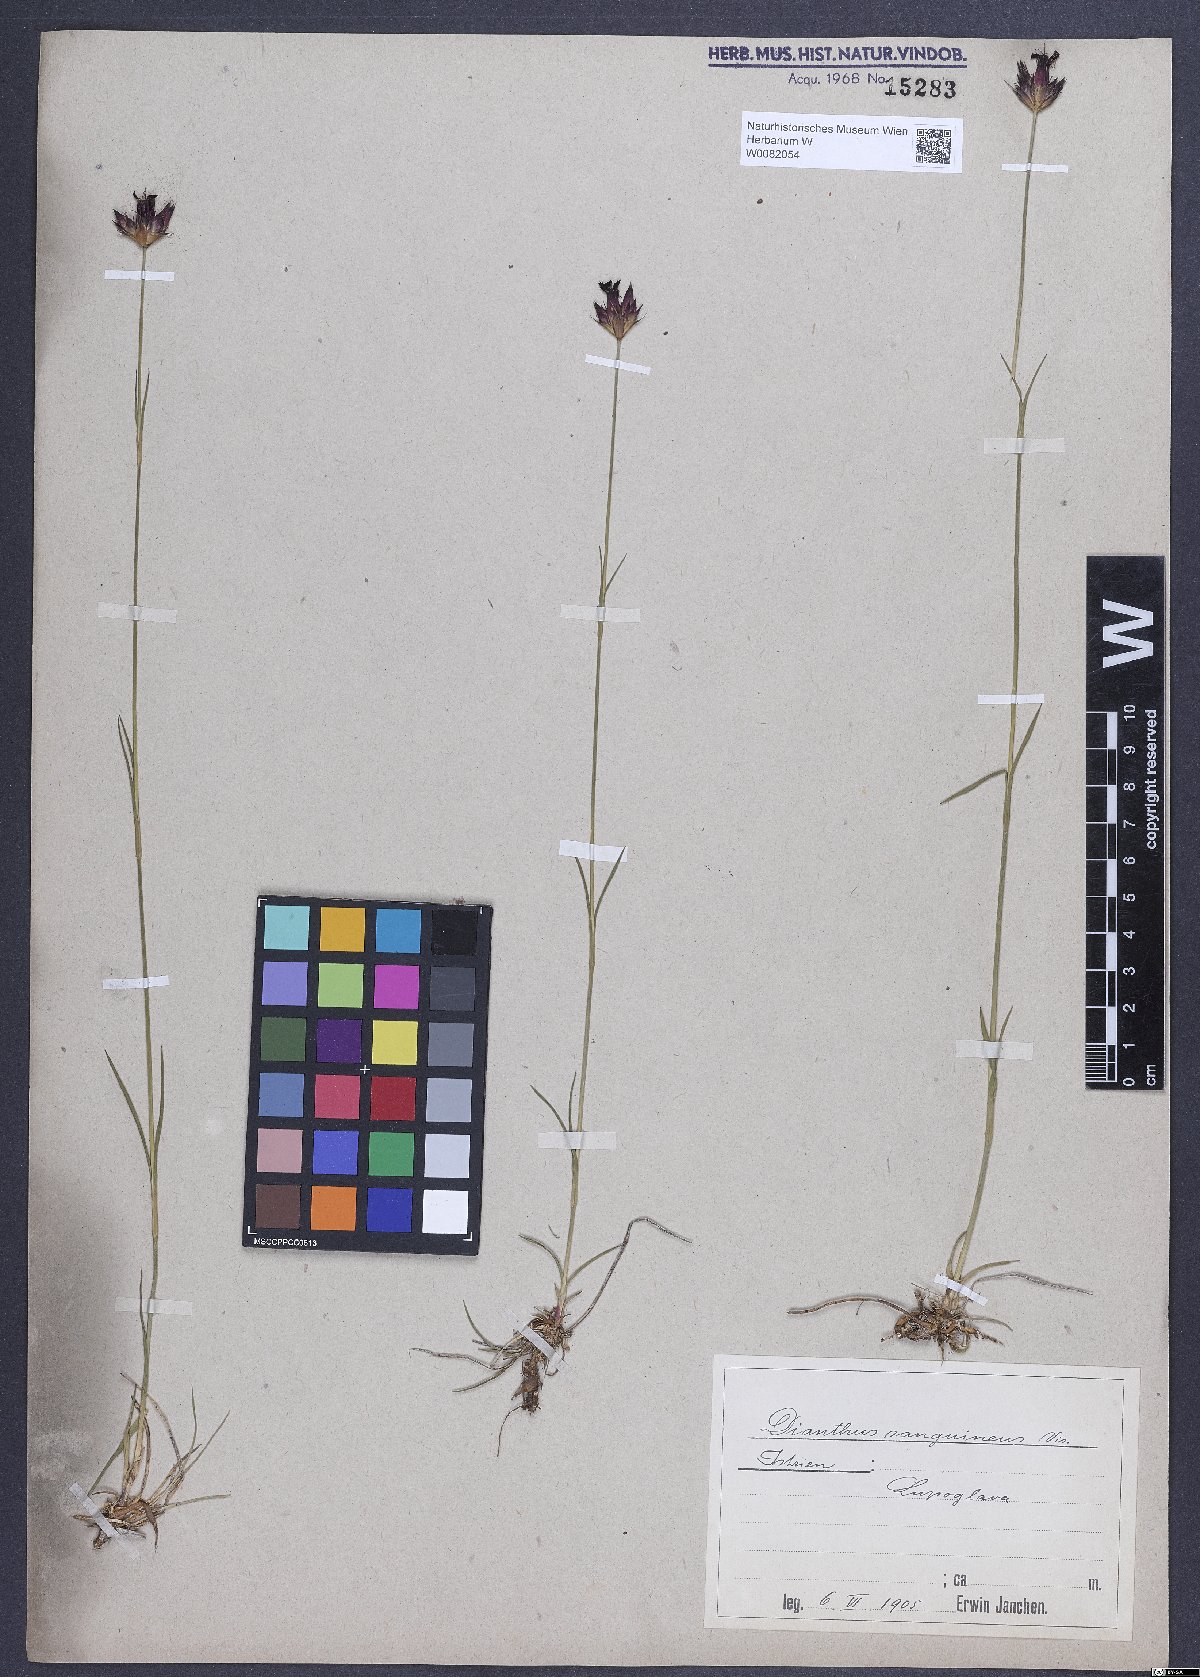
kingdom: Plantae
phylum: Tracheophyta
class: Magnoliopsida
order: Caryophyllales
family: Caryophyllaceae
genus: Dianthus
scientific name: Dianthus carthusianorum
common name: Carthusian pink
